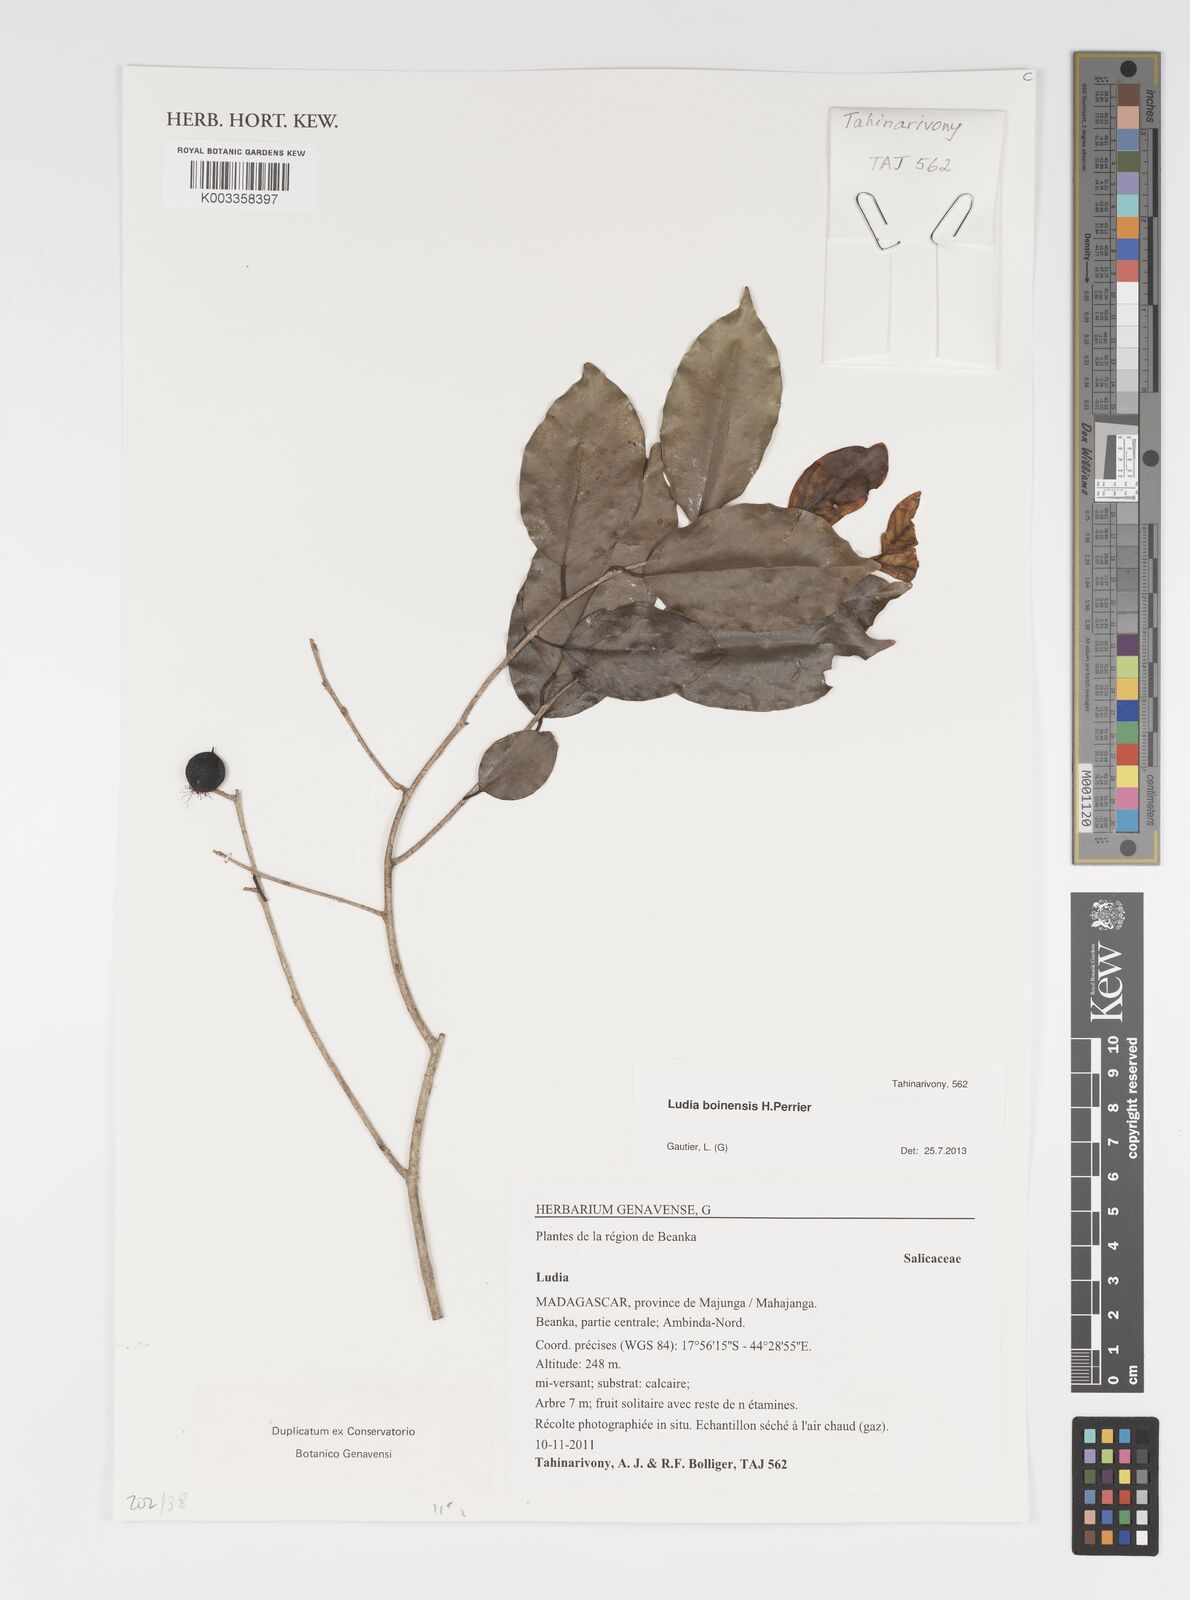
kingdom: Plantae
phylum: Tracheophyta
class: Magnoliopsida
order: Malpighiales
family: Salicaceae
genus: Ludia
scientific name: Ludia boinensis
